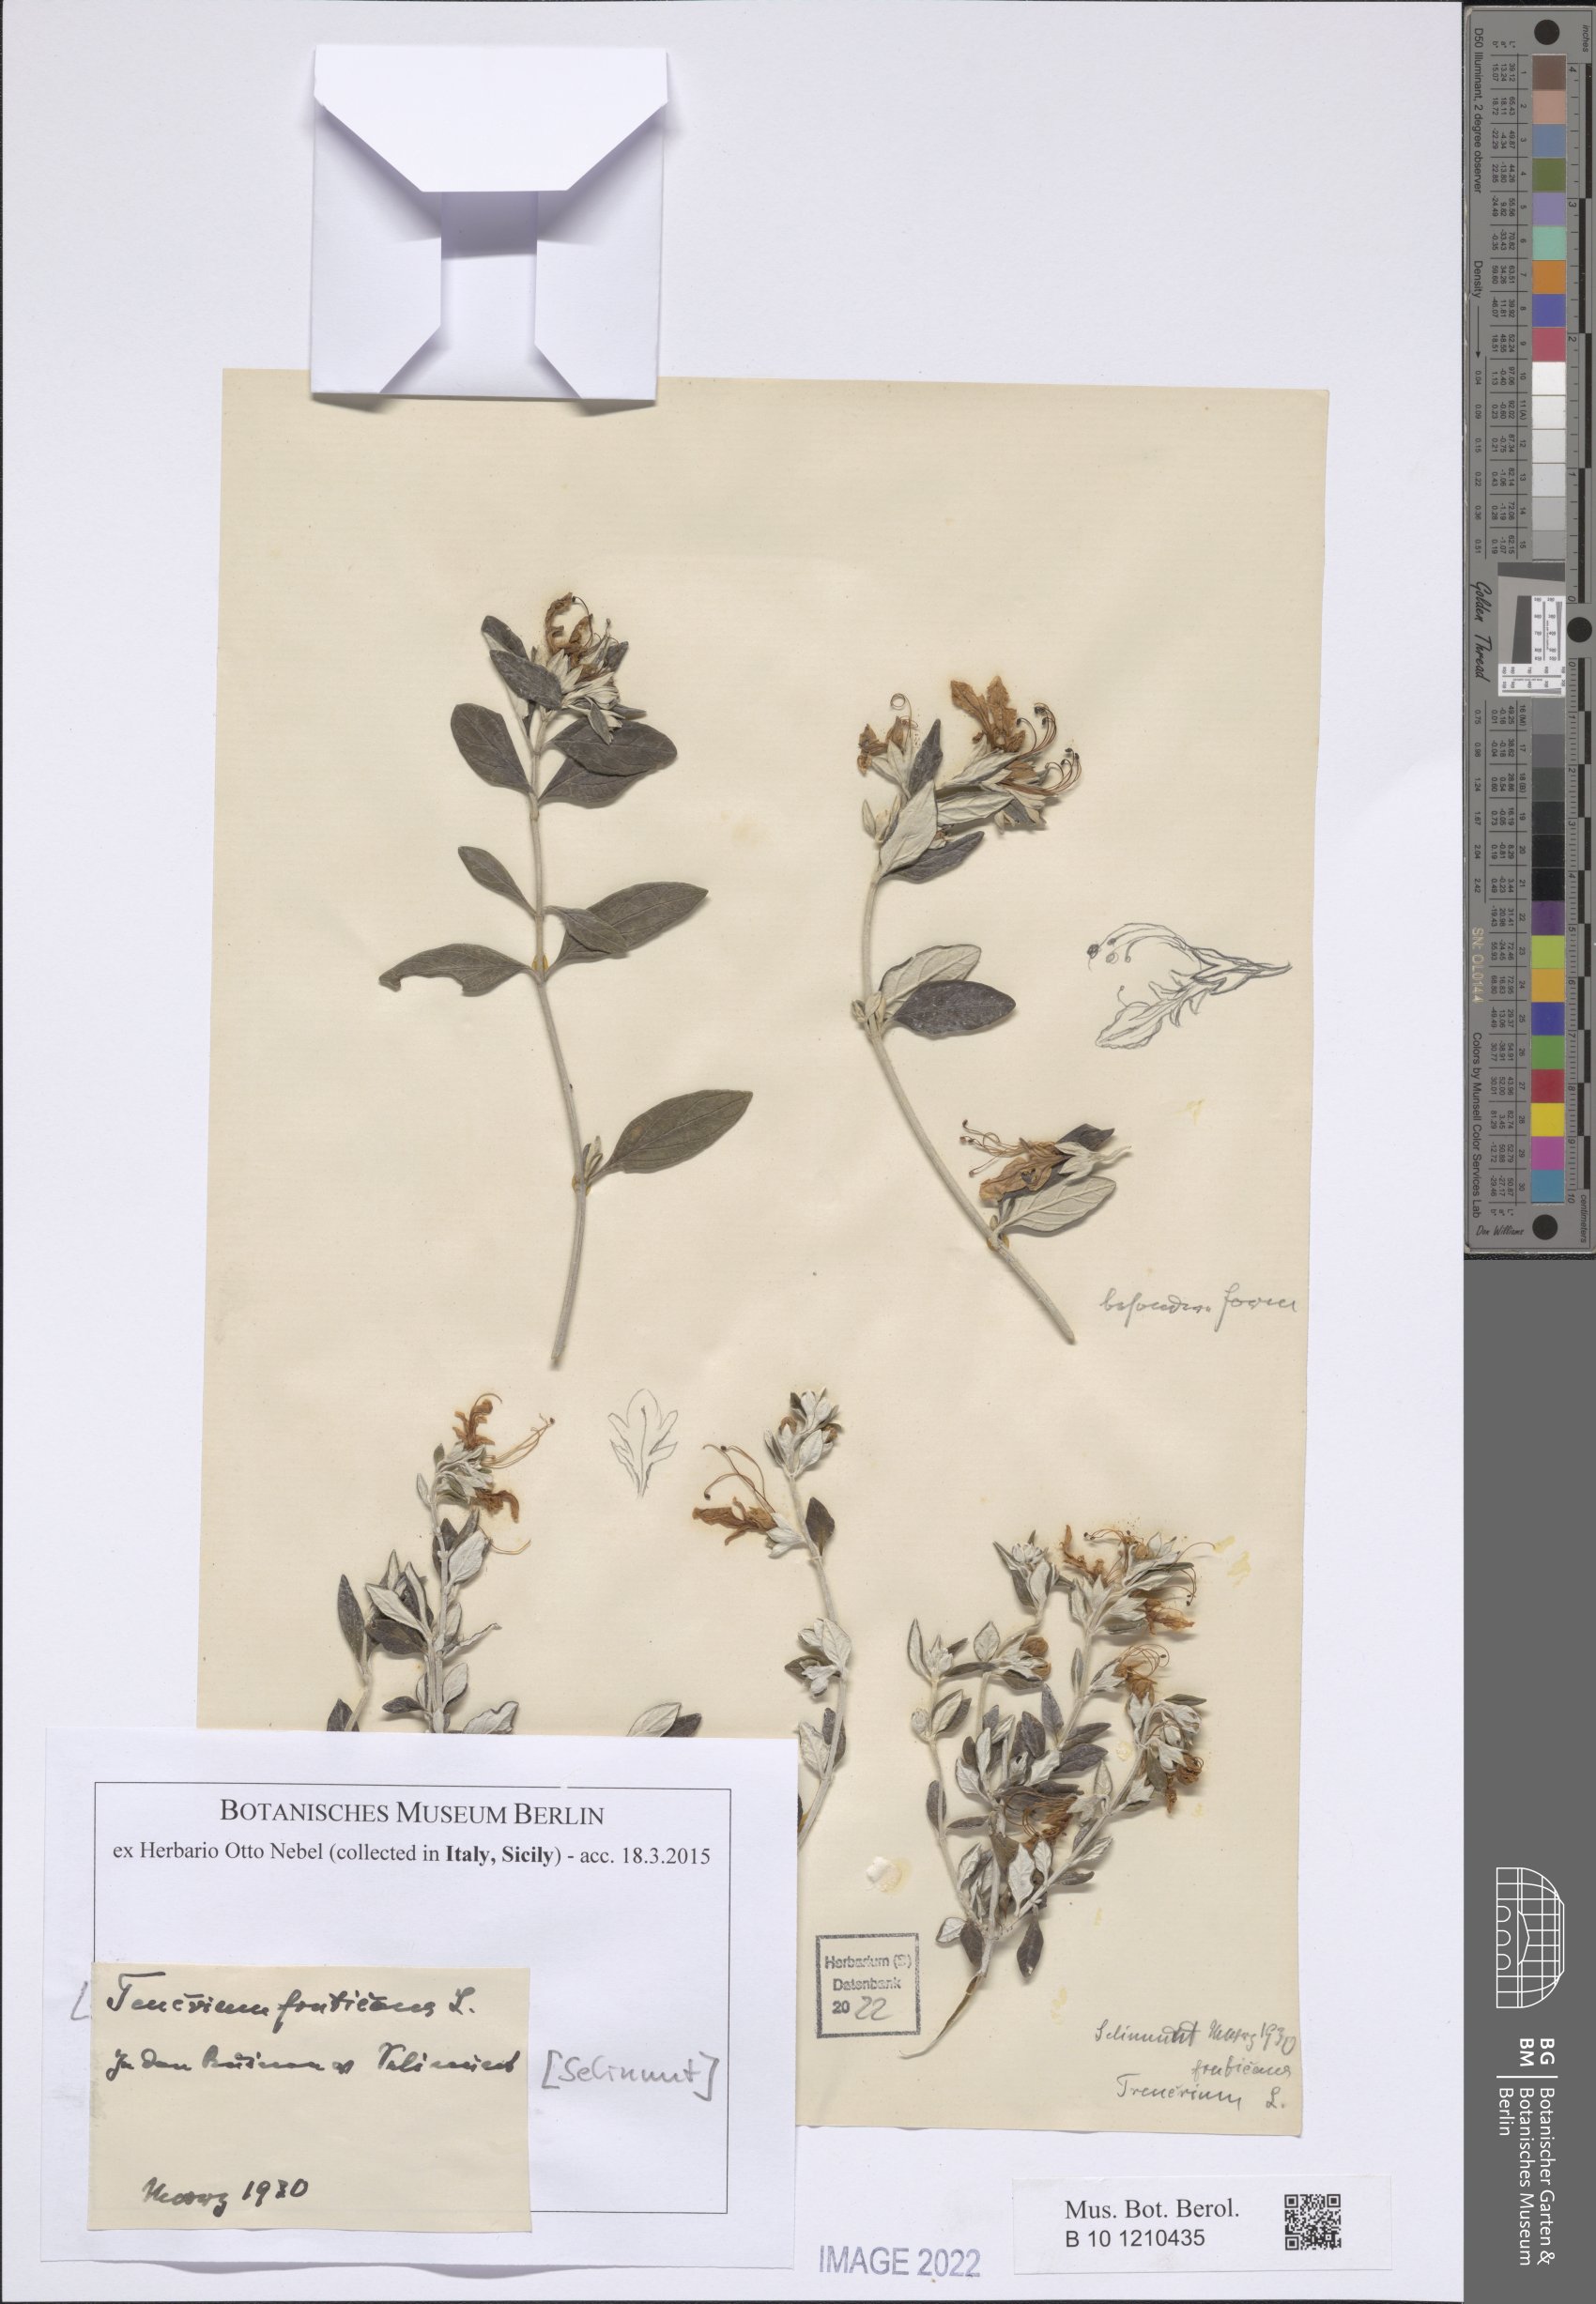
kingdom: Plantae
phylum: Tracheophyta
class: Magnoliopsida
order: Lamiales
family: Lamiaceae
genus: Teucrium
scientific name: Teucrium fruticans
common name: Shrubby germander
